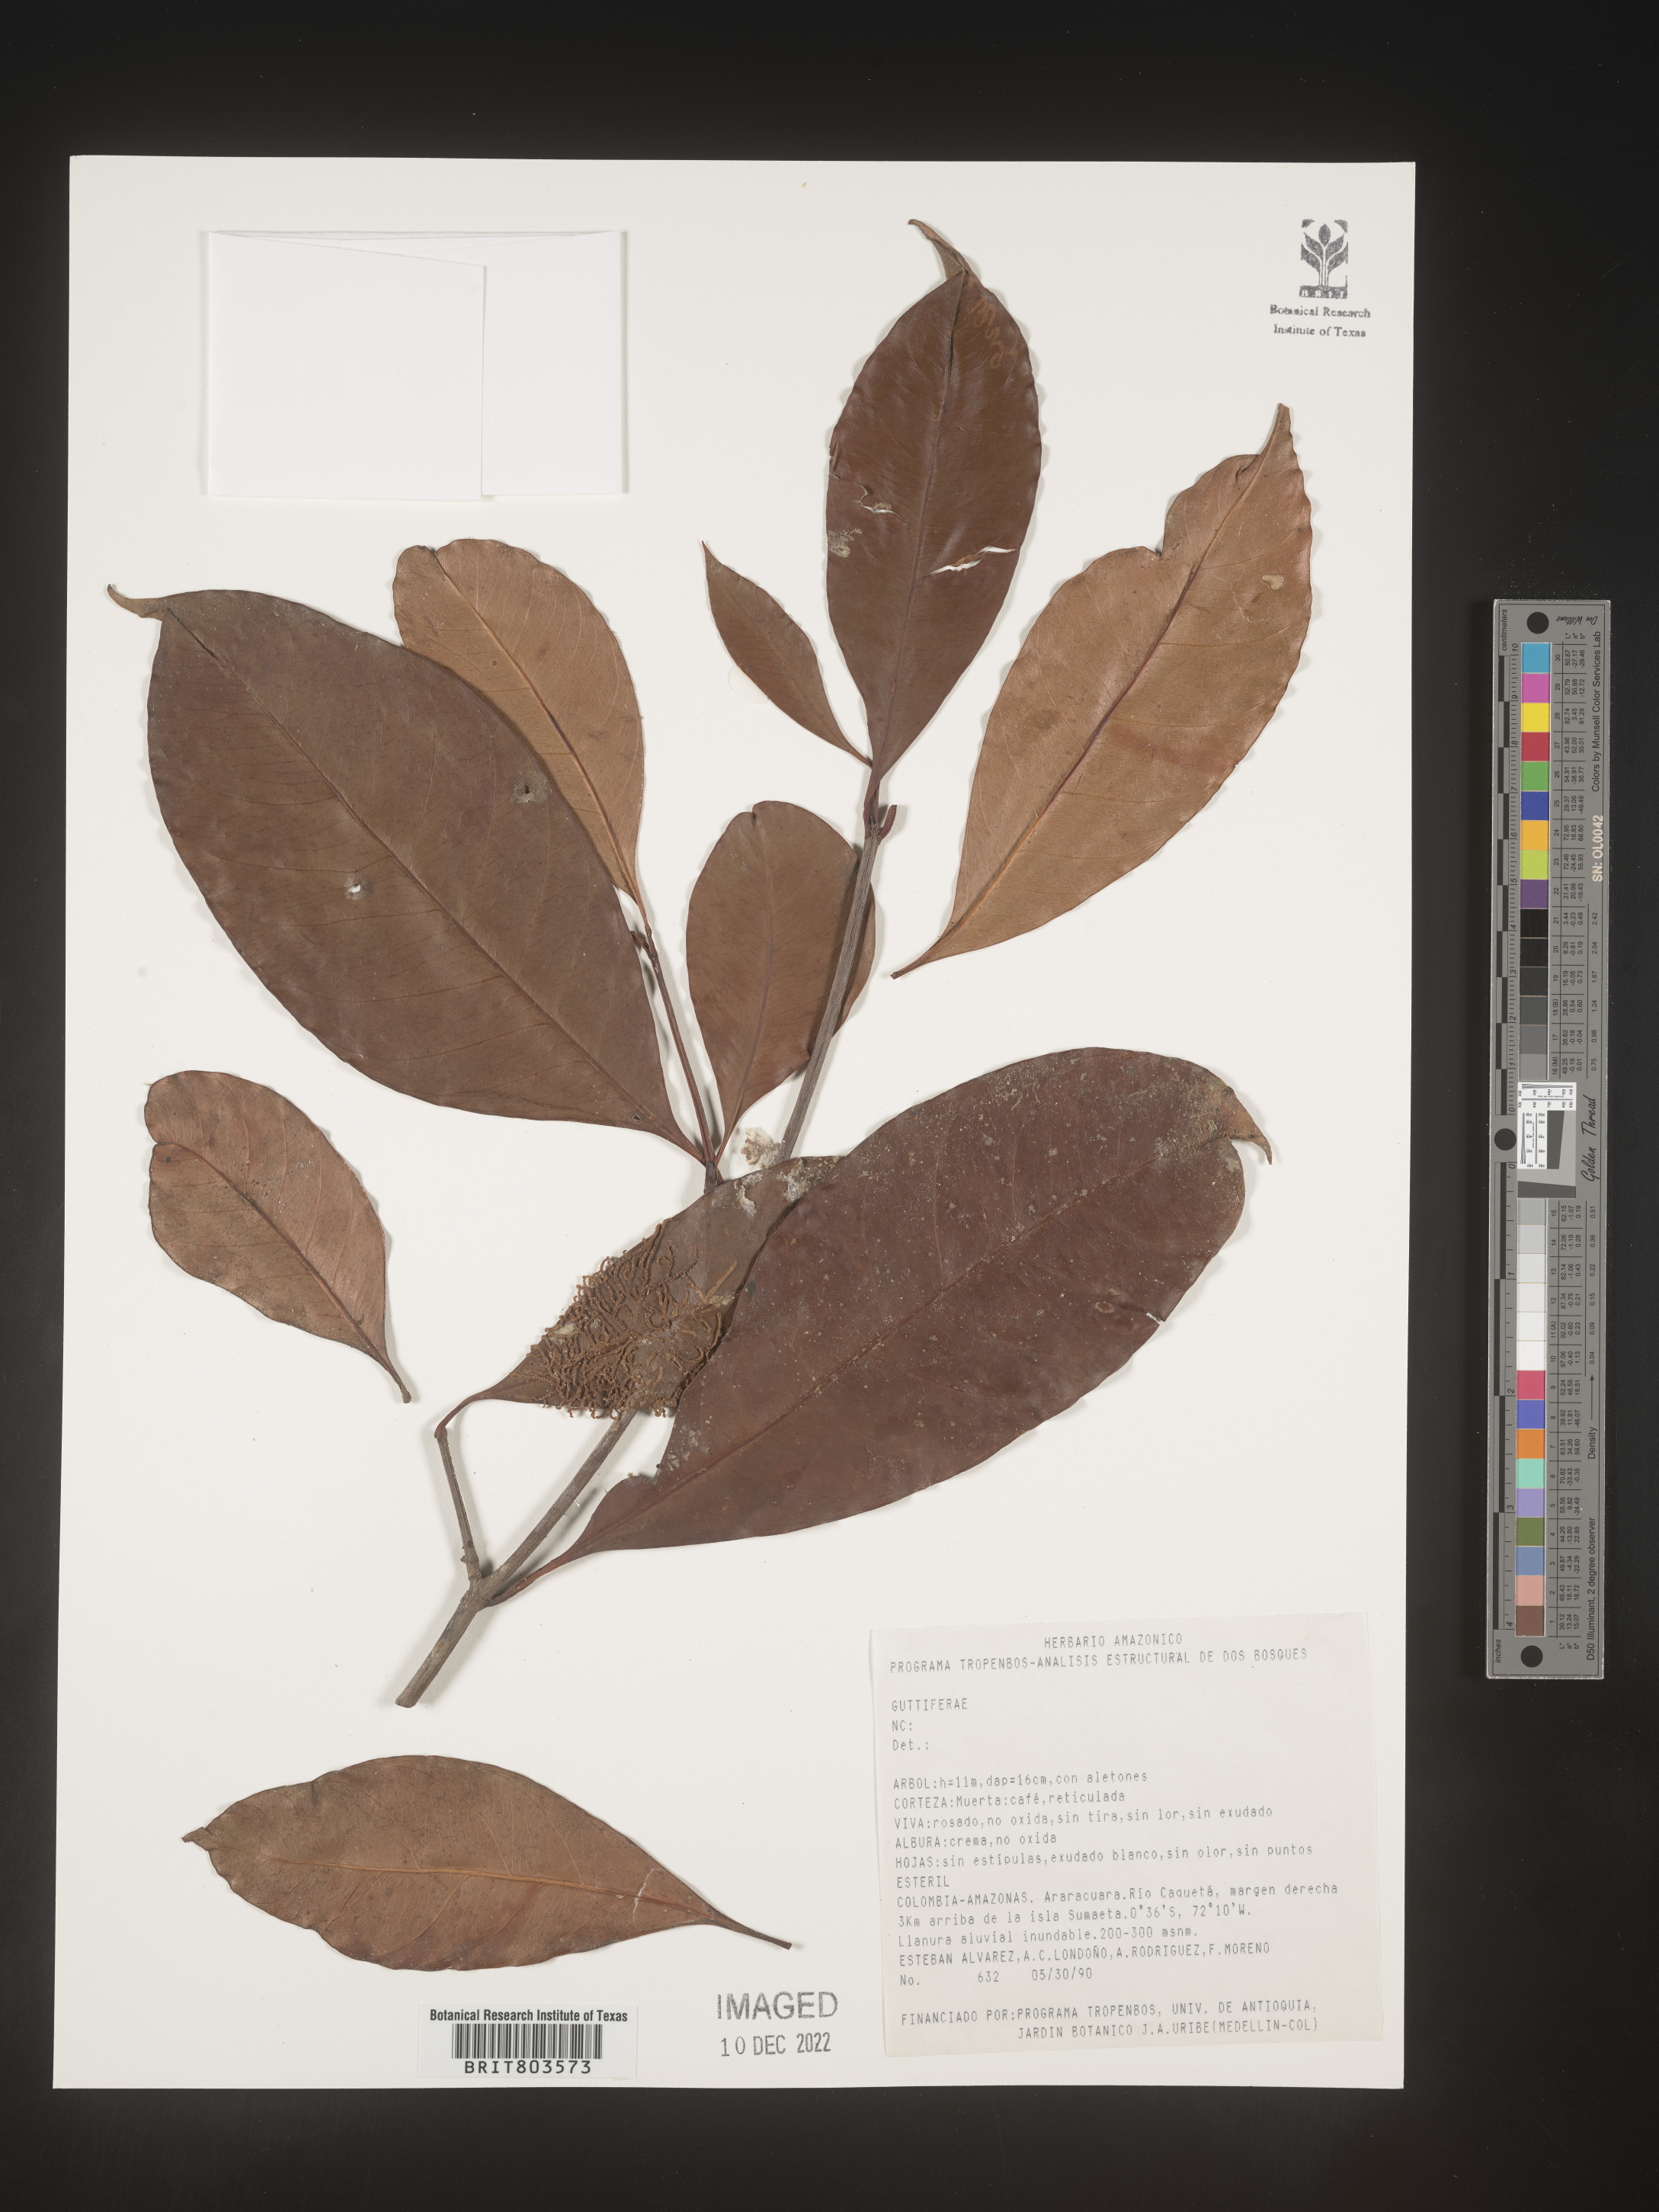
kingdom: Plantae
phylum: Tracheophyta
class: Magnoliopsida
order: Malpighiales
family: Clusiaceae
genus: Tovomita
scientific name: Tovomita
